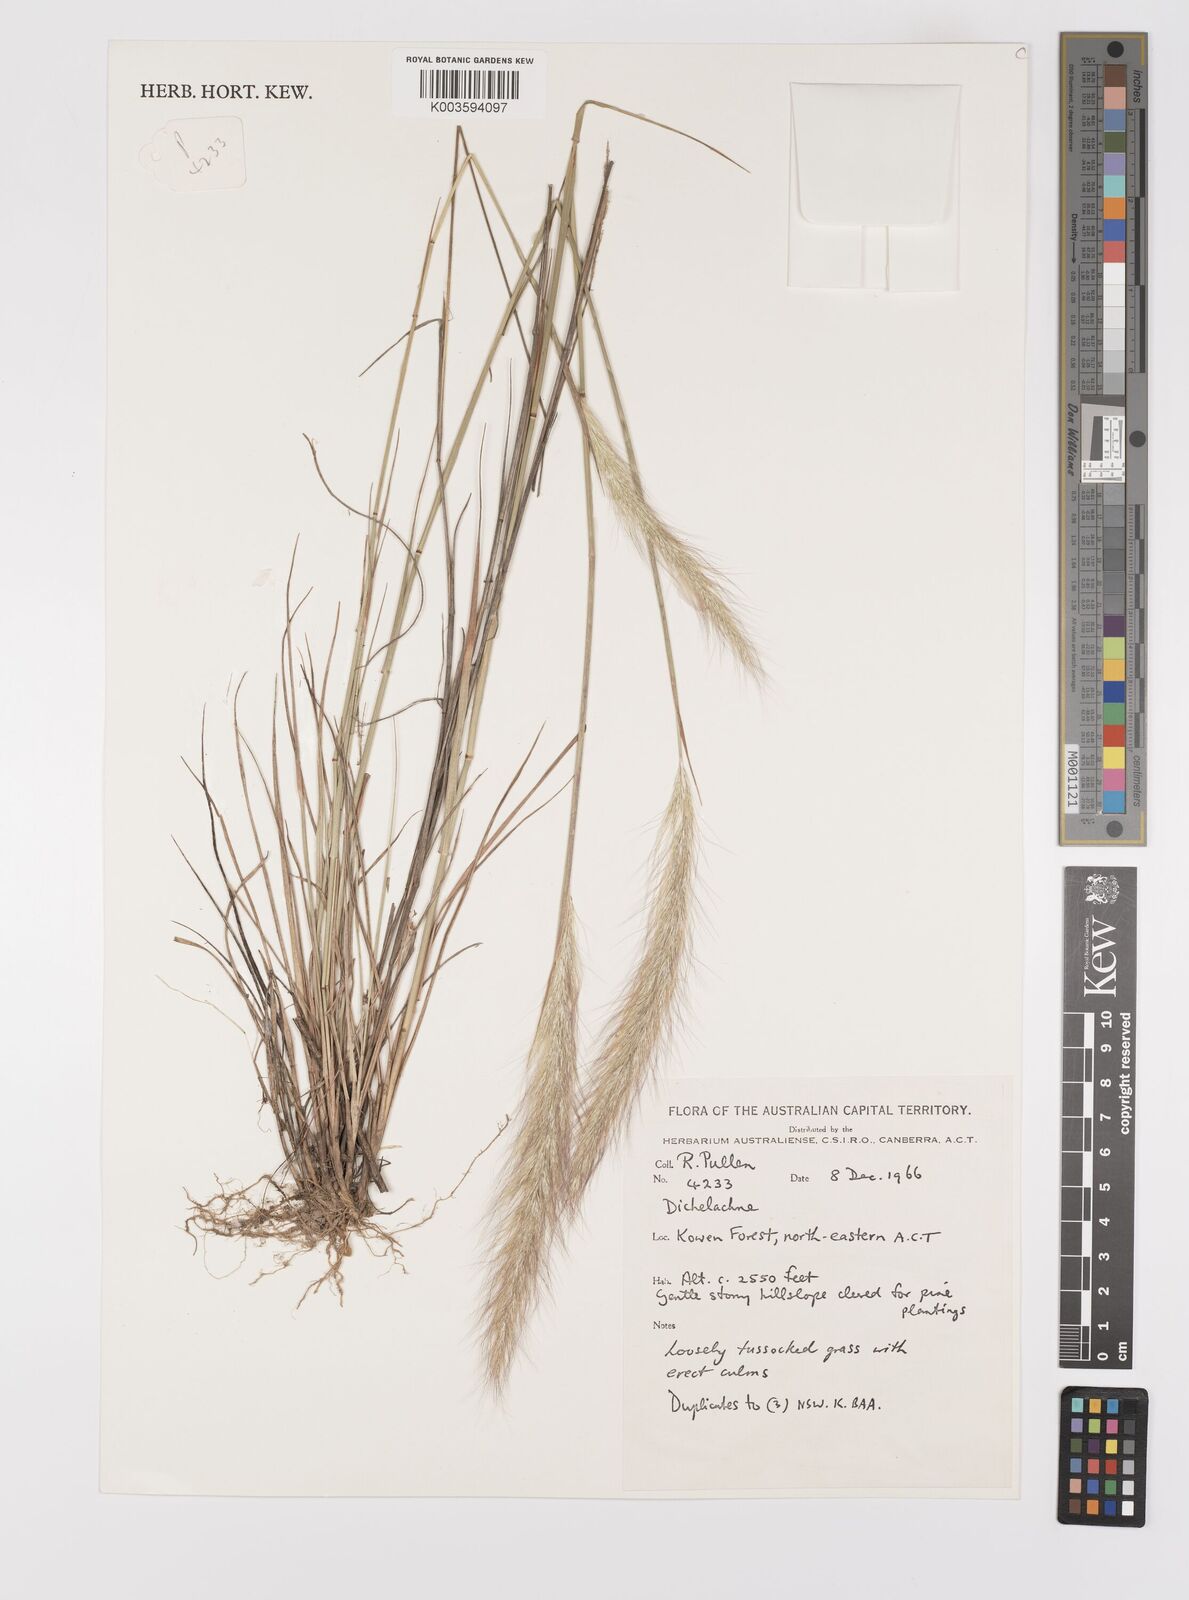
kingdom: Plantae
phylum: Tracheophyta
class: Liliopsida
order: Poales
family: Poaceae
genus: Dichelachne
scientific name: Dichelachne
